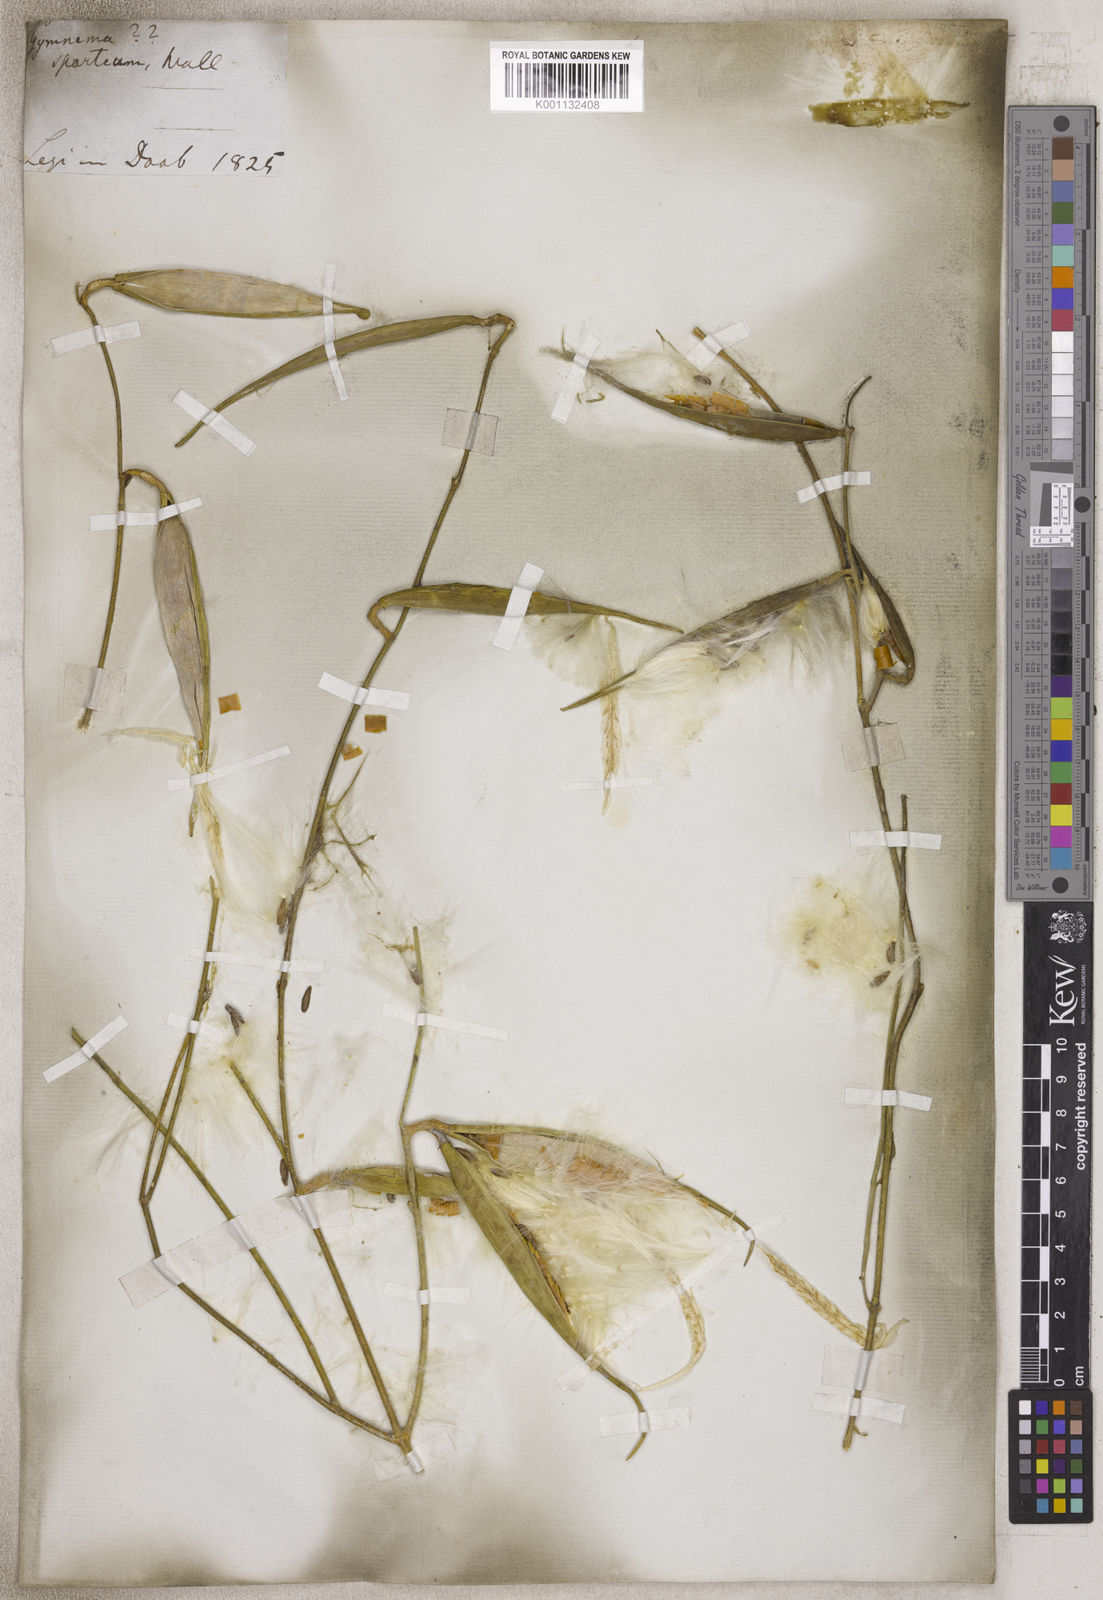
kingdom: Plantae
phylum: Tracheophyta
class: Magnoliopsida
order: Gentianales
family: Apocynaceae
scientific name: Apocynaceae
